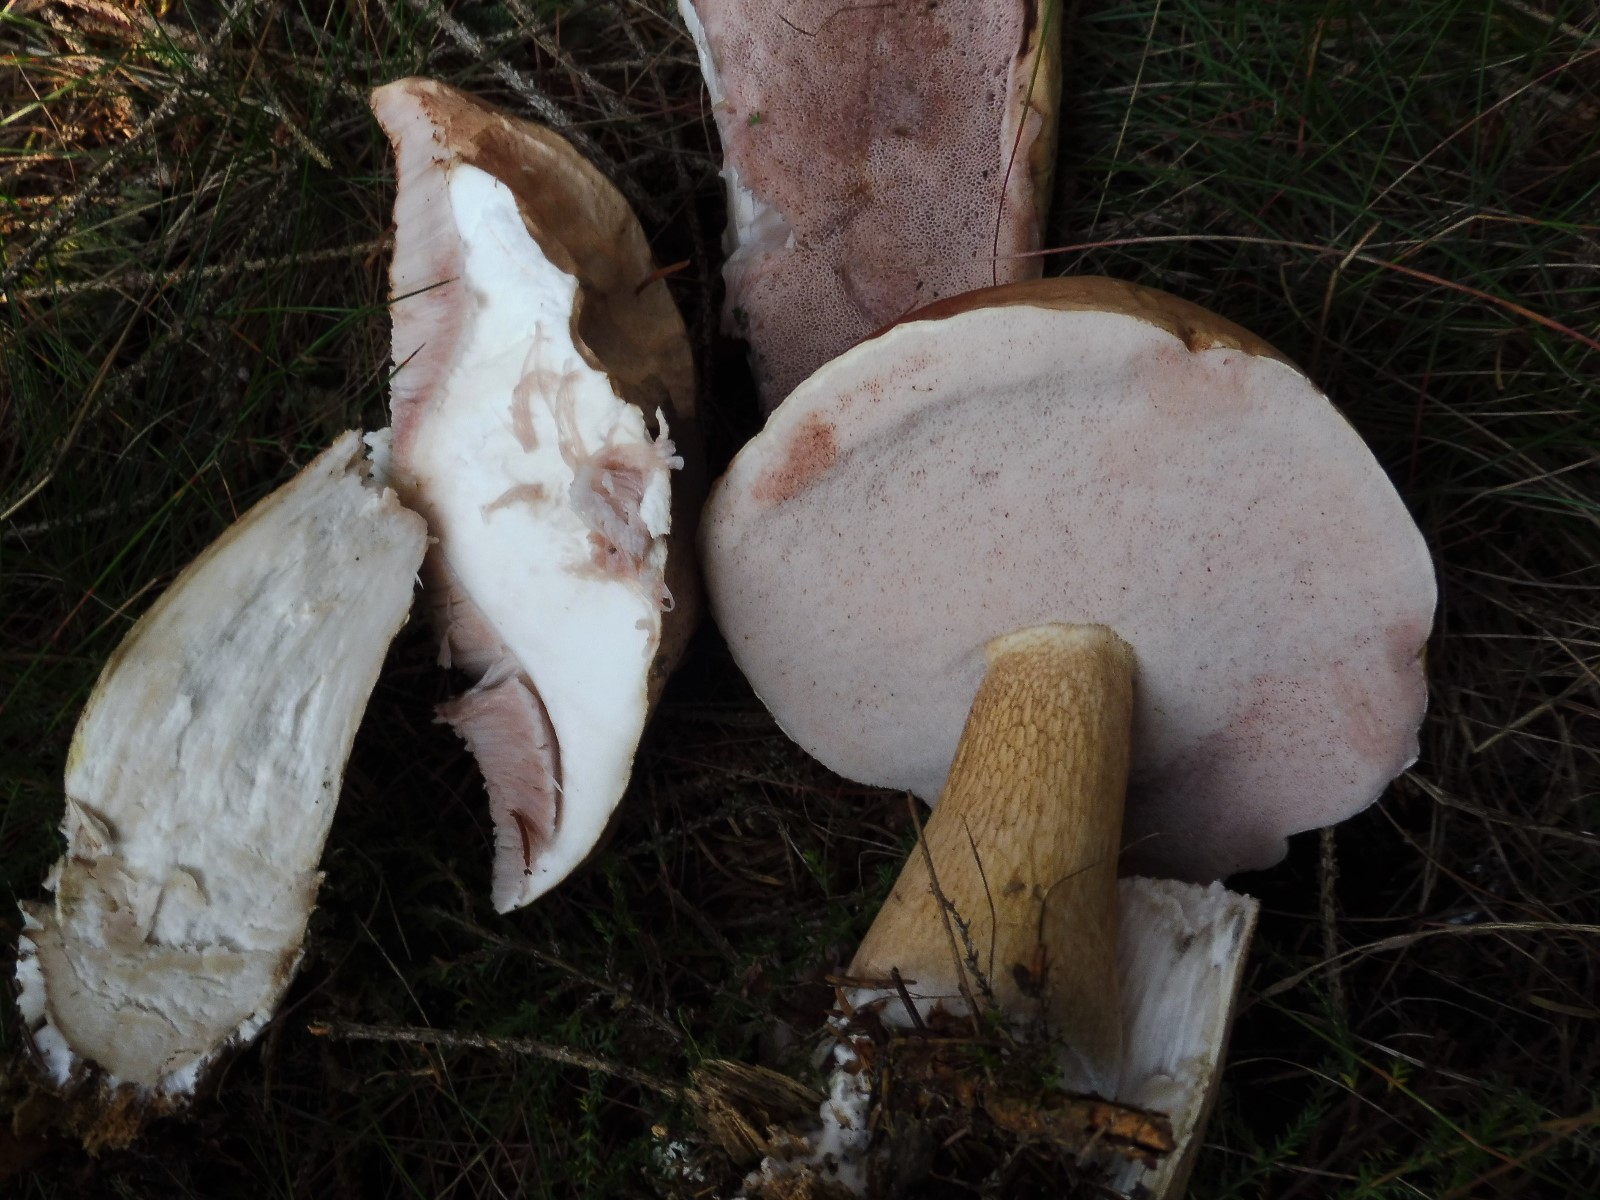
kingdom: Fungi
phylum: Basidiomycota
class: Agaricomycetes
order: Boletales
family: Boletaceae
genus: Tylopilus
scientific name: Tylopilus felleus
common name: galderørhat
